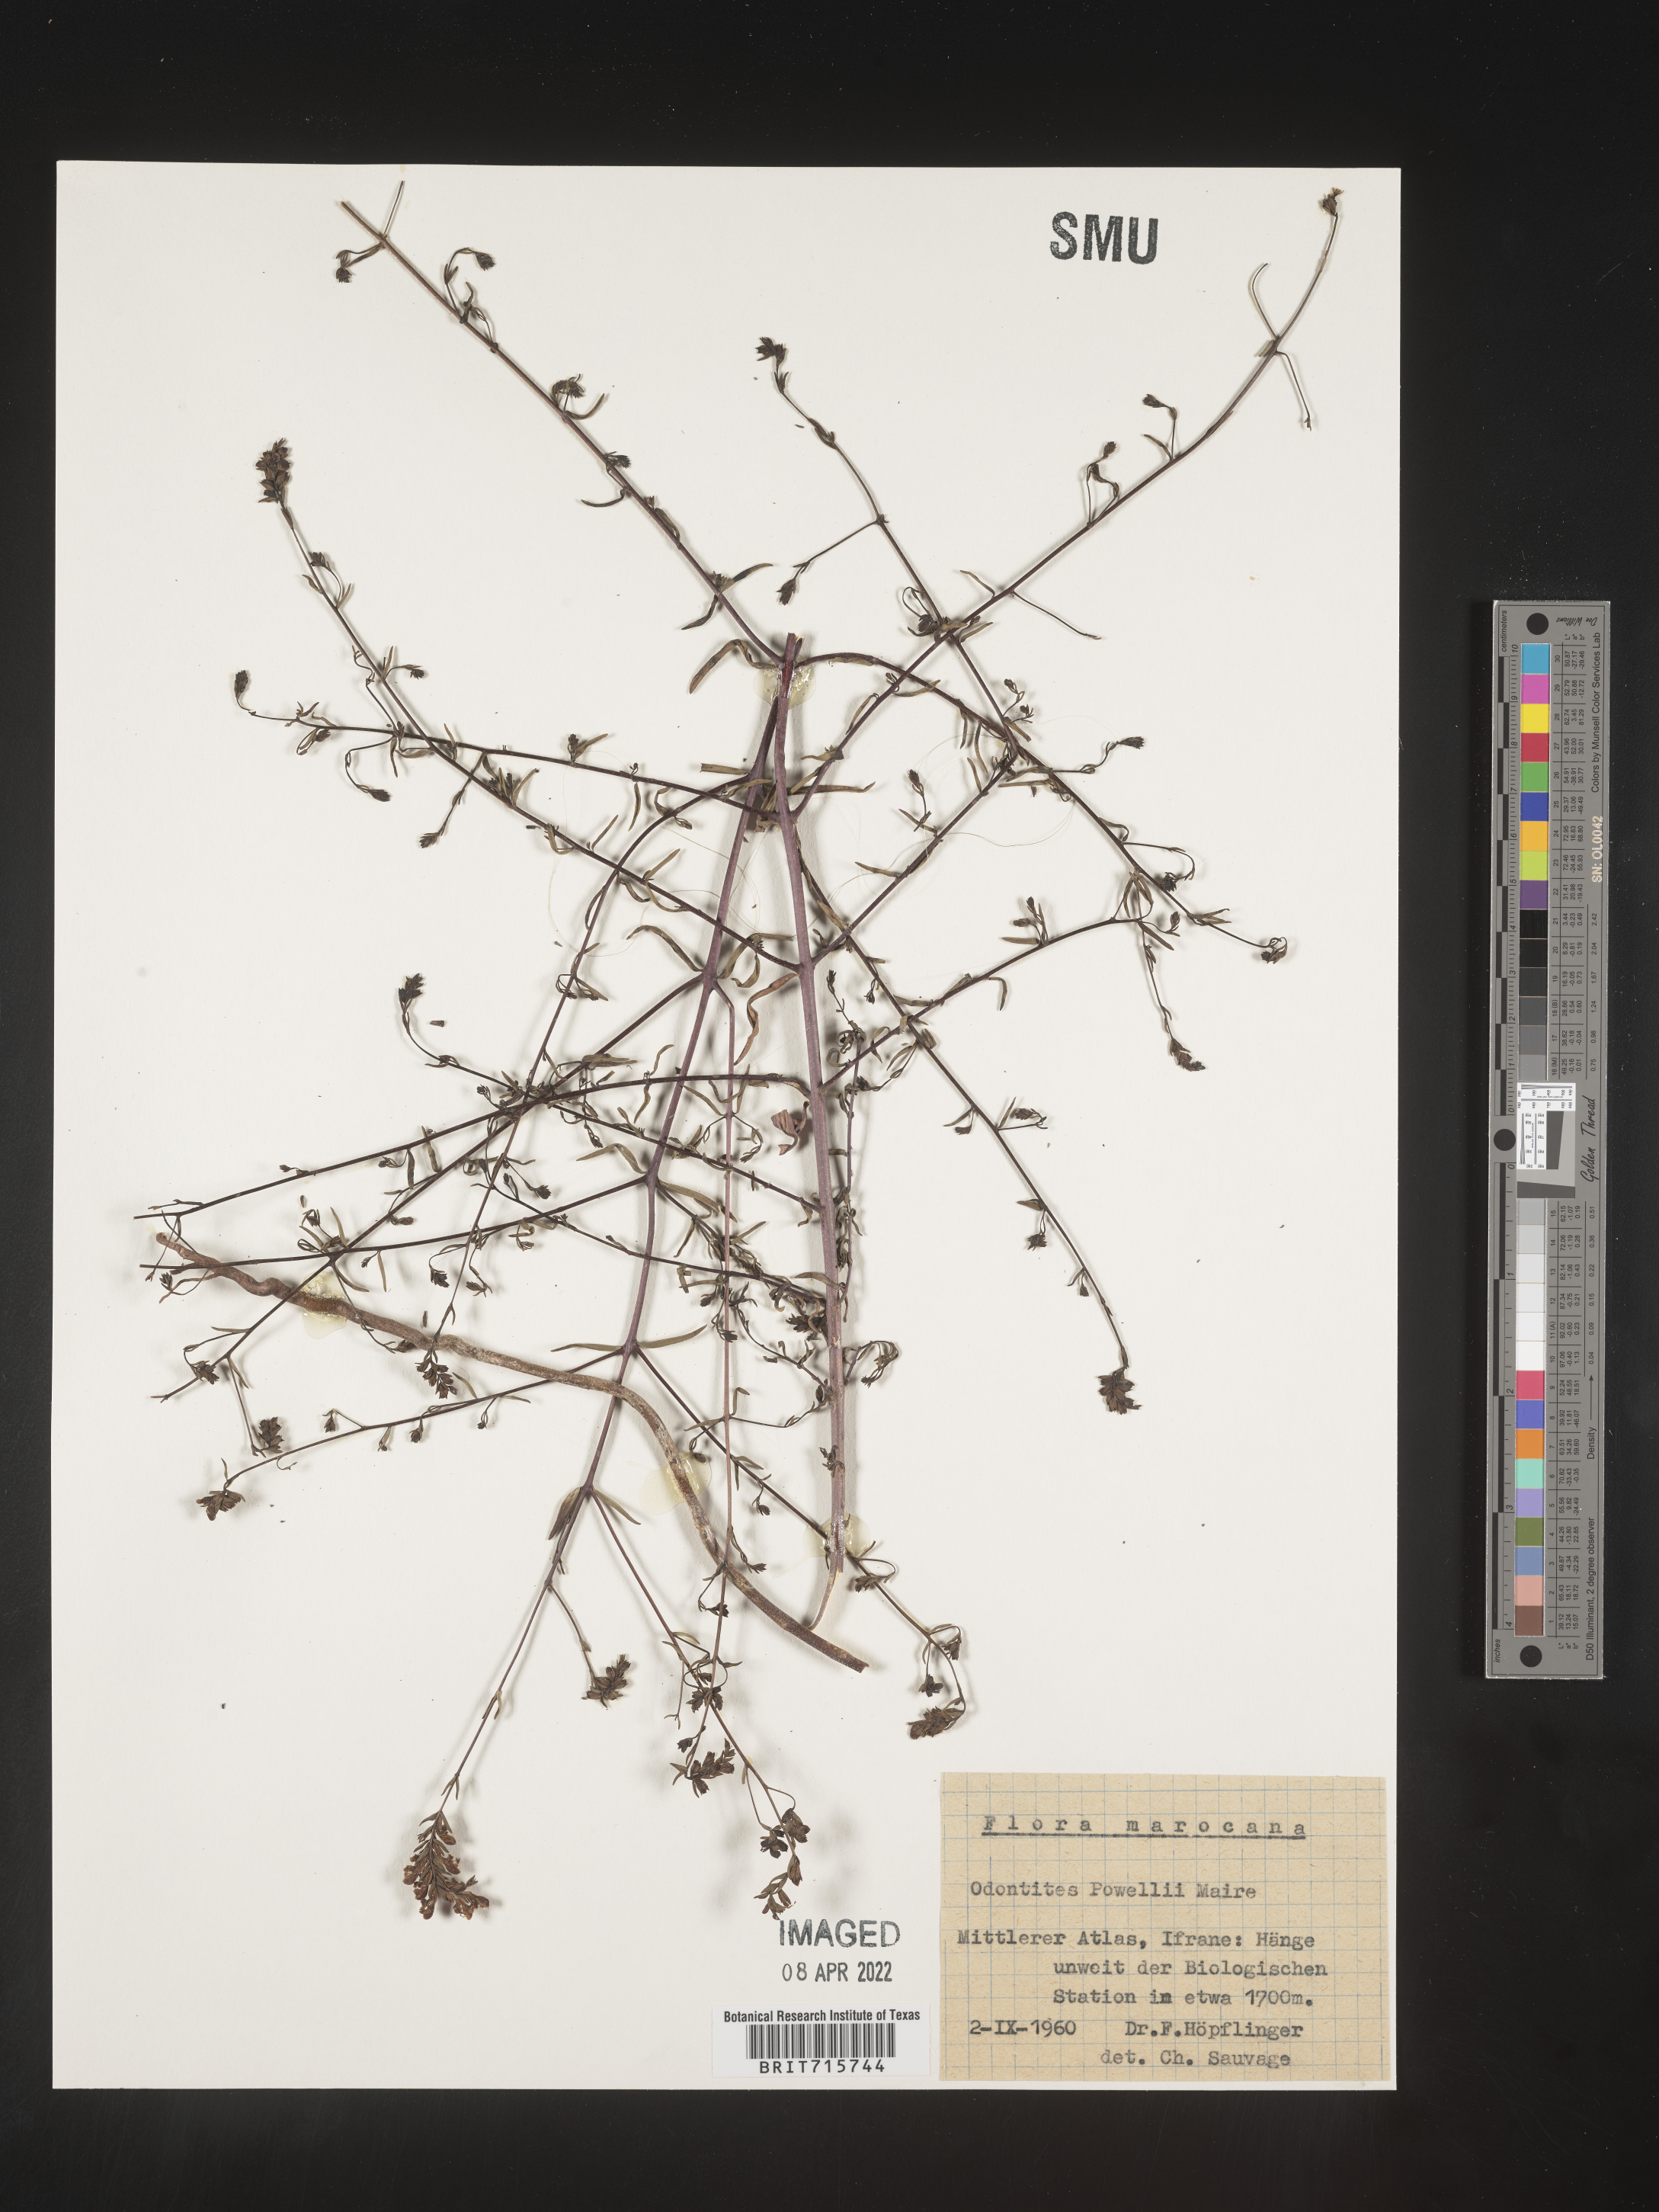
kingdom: Plantae
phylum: Tracheophyta
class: Magnoliopsida
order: Lamiales
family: Orobanchaceae
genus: Odontites
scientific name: Odontites
